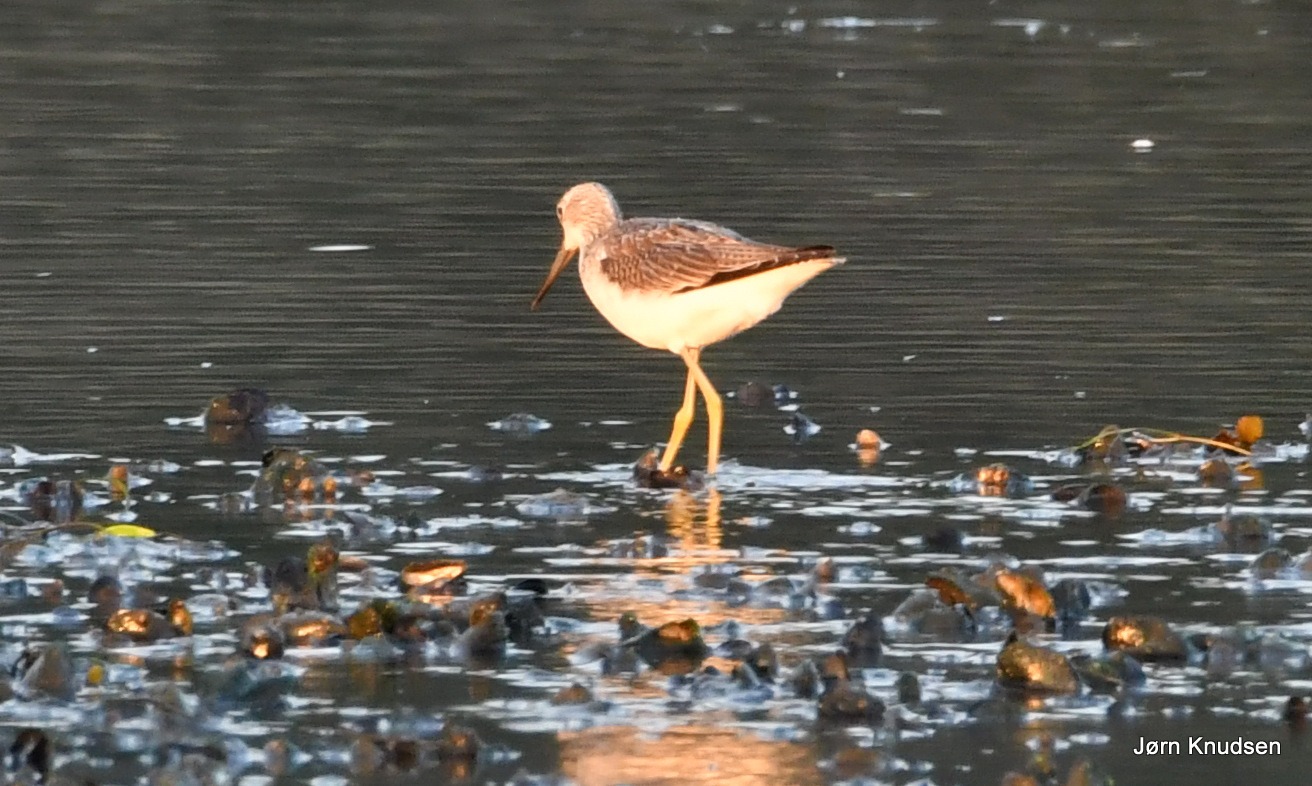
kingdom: Animalia
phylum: Chordata
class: Aves
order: Charadriiformes
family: Scolopacidae
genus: Tringa
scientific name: Tringa nebularia
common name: Hvidklire
